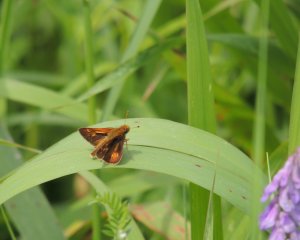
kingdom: Animalia
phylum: Arthropoda
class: Insecta
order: Lepidoptera
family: Hesperiidae
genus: Polites
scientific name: Polites
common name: Crossline Skipper
